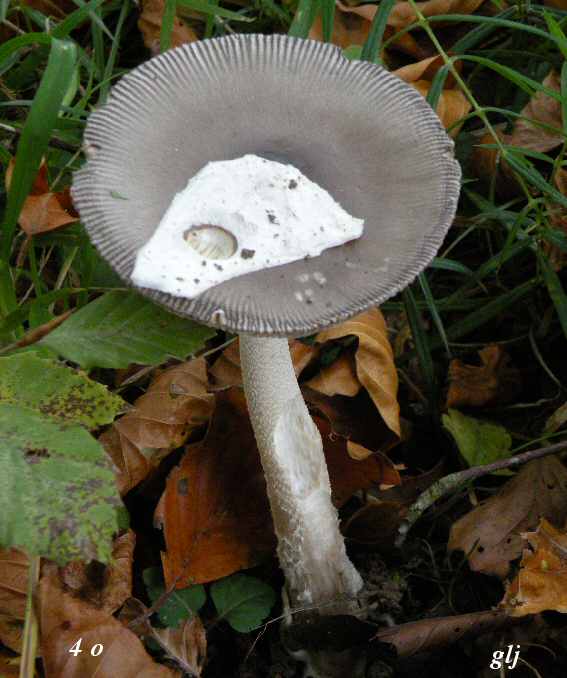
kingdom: Fungi
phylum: Basidiomycota
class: Agaricomycetes
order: Agaricales
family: Amanitaceae
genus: Amanita
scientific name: Amanita vaginata
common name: grå kam-fluesvamp
